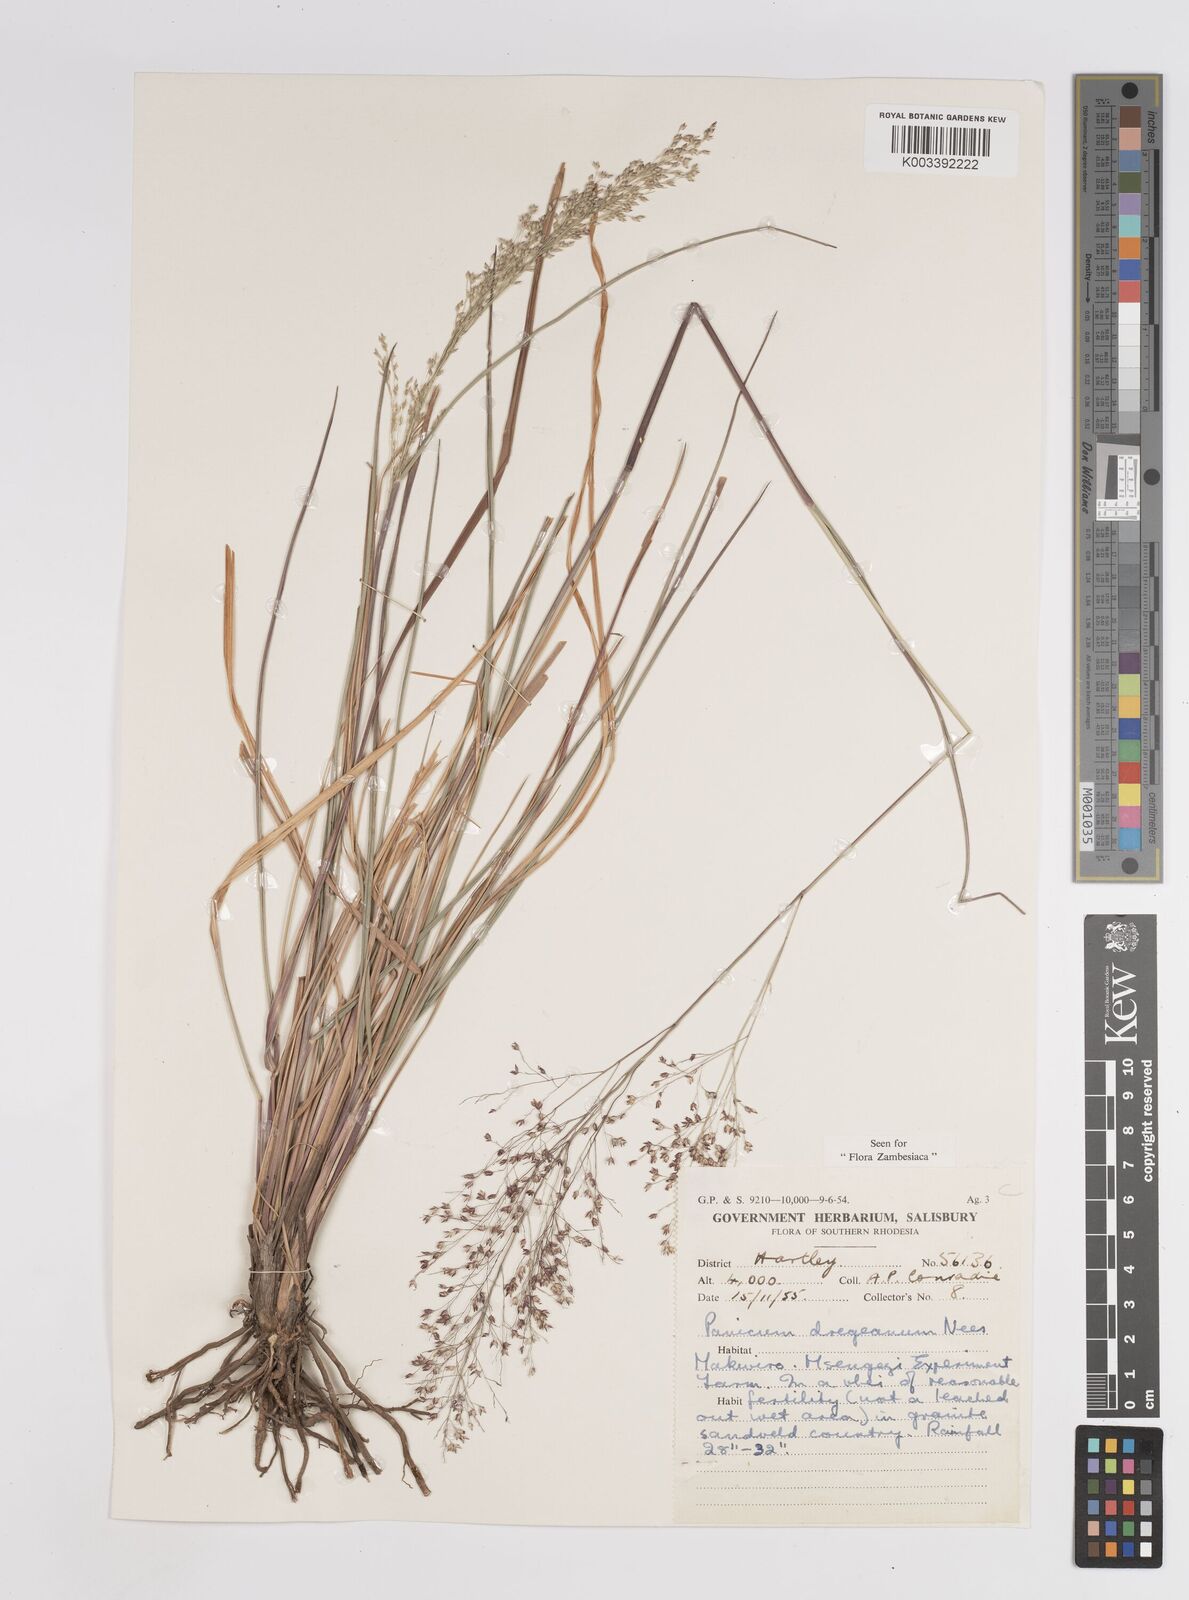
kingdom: Plantae
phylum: Tracheophyta
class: Liliopsida
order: Poales
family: Poaceae
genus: Panicum
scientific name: Panicum dregeanum
